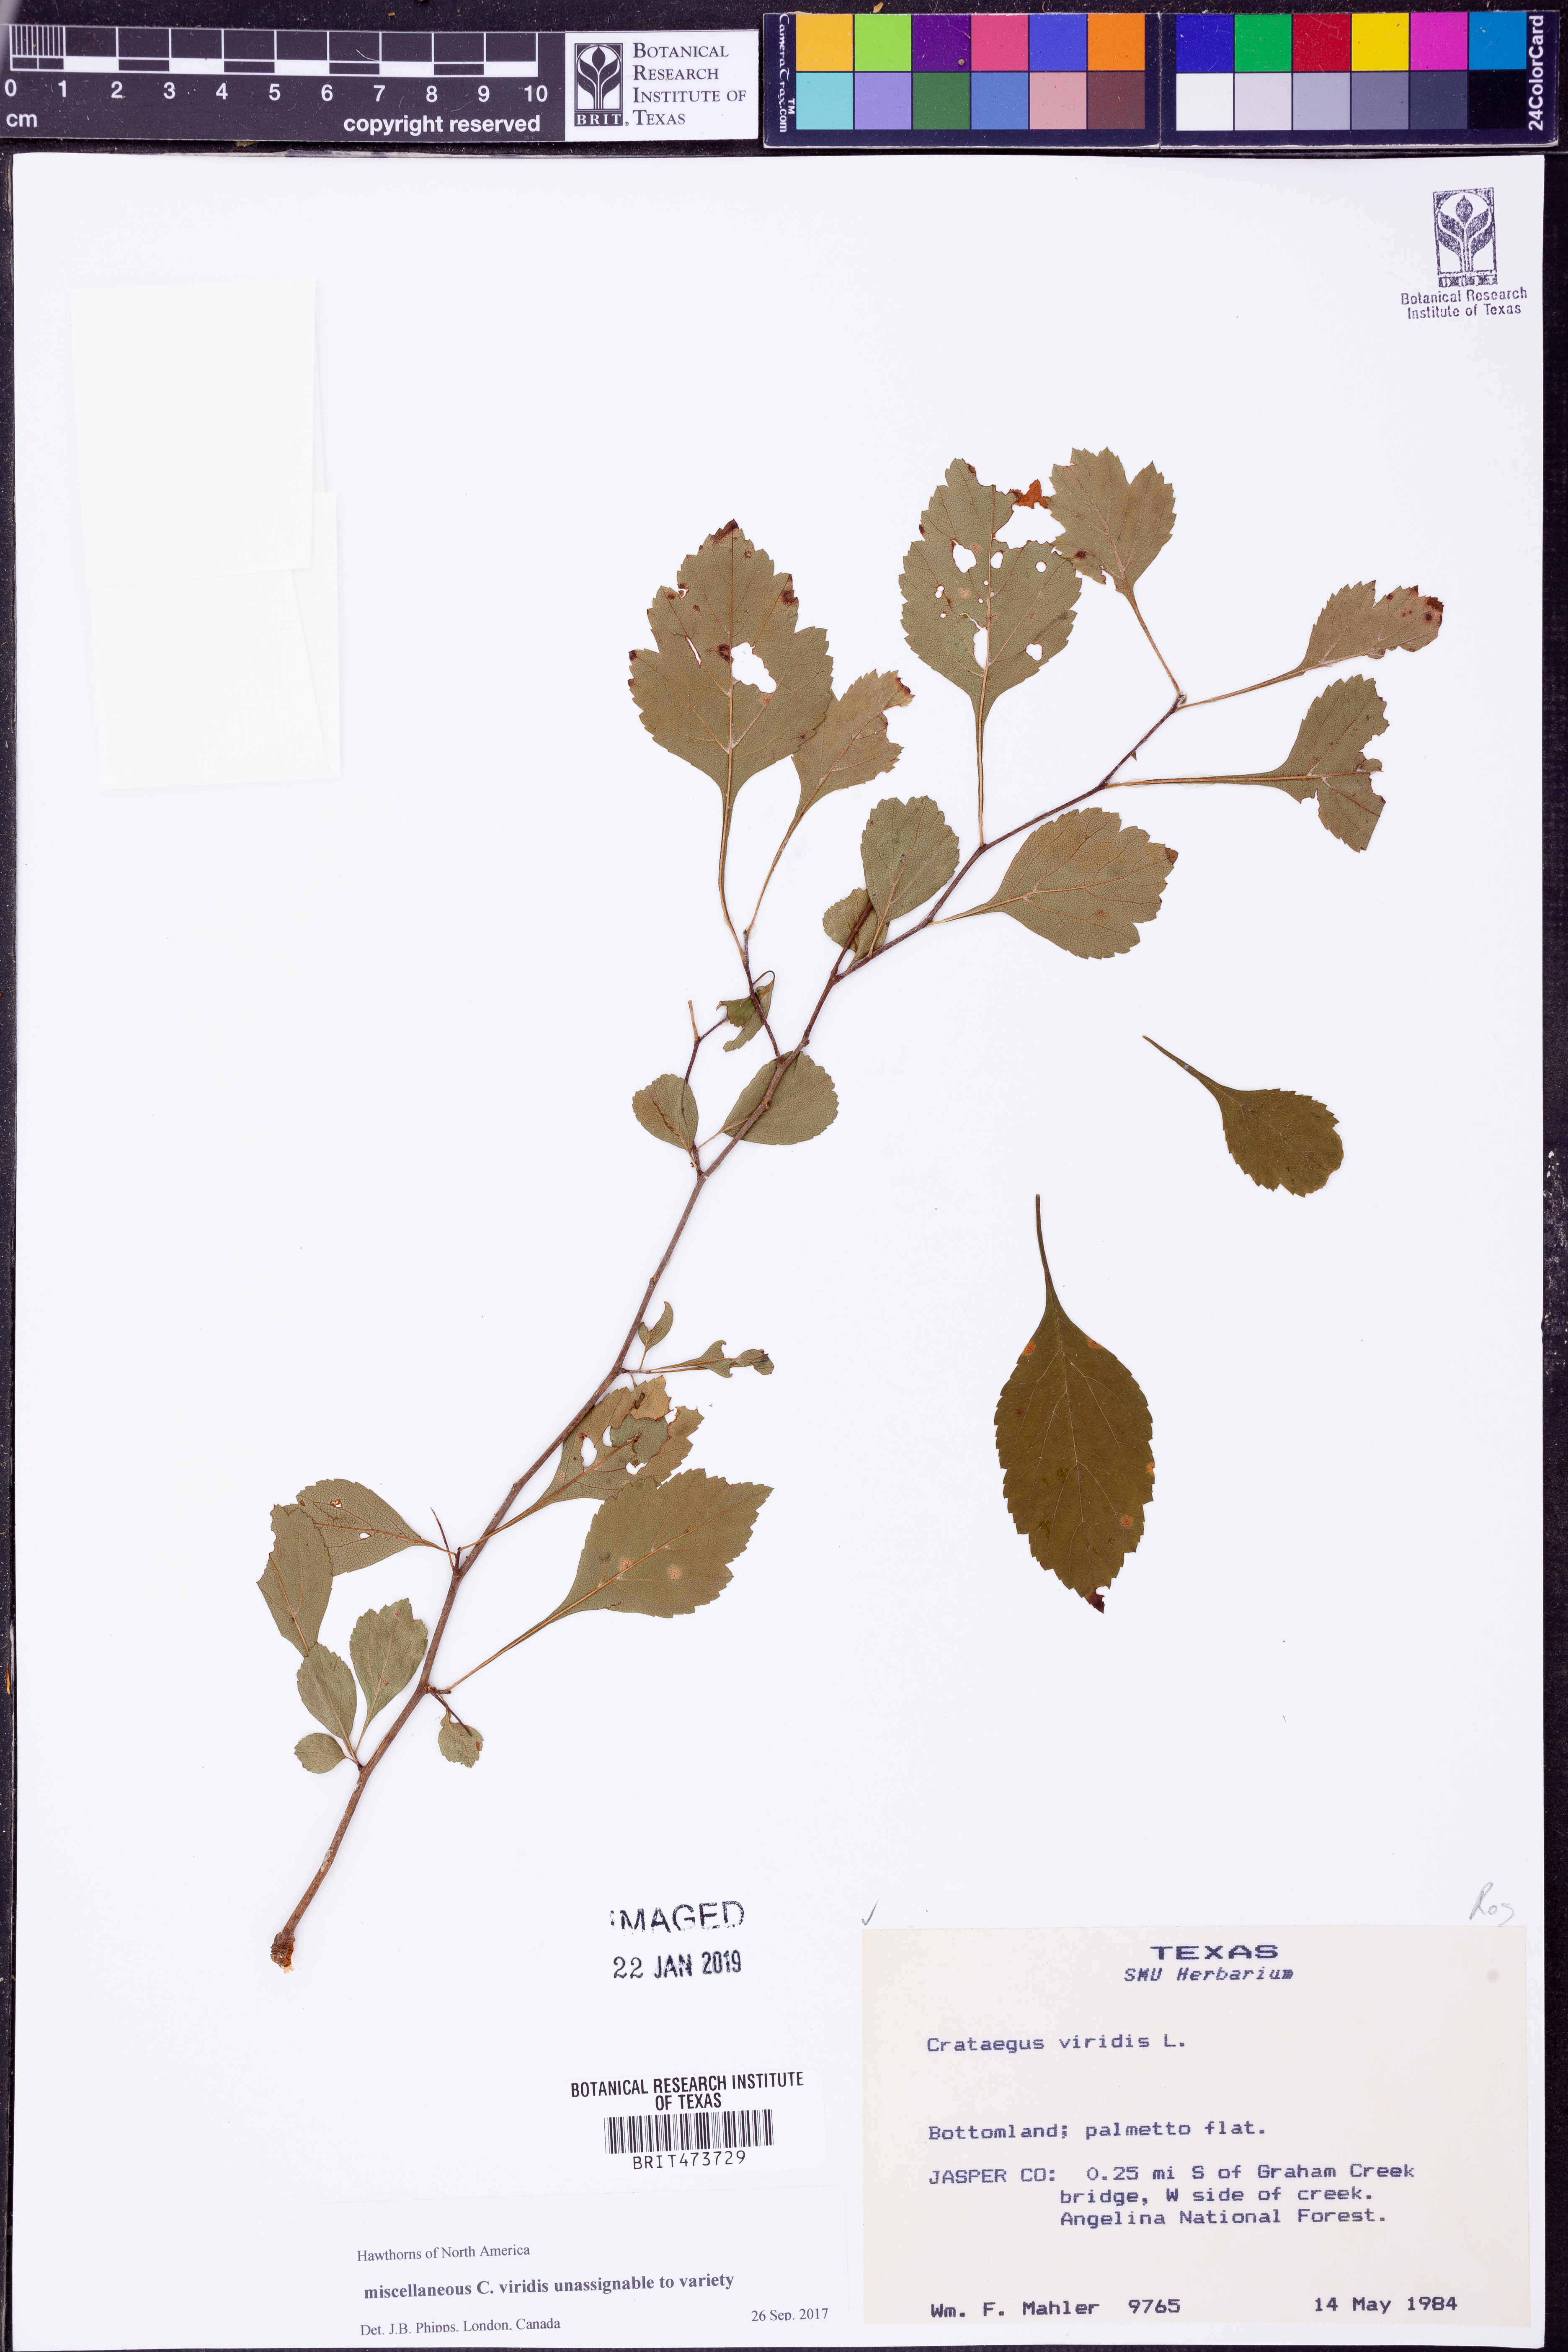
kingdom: Plantae
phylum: Tracheophyta
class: Magnoliopsida
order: Rosales
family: Rosaceae
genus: Crataegus
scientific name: Crataegus viridis
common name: Southernthorn
